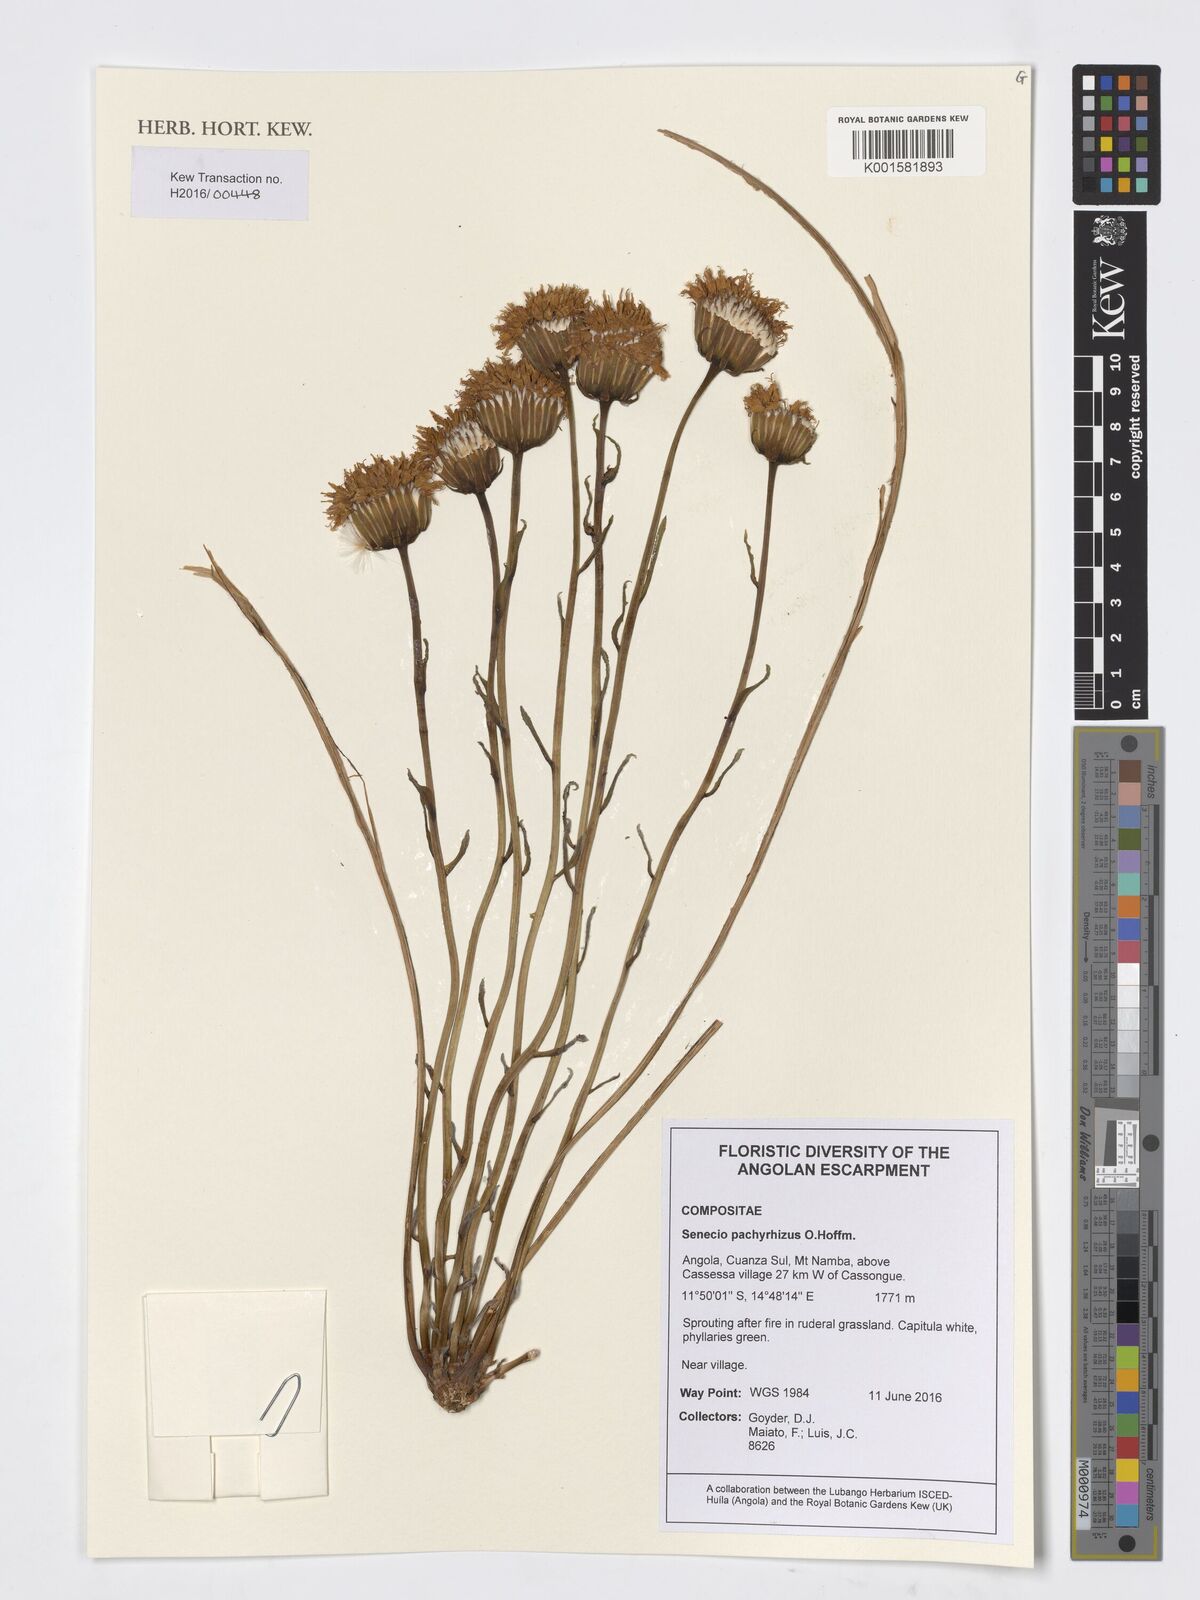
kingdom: Plantae
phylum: Tracheophyta
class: Magnoliopsida
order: Asterales
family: Asteraceae
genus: Senecio
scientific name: Senecio pachyrhizus
